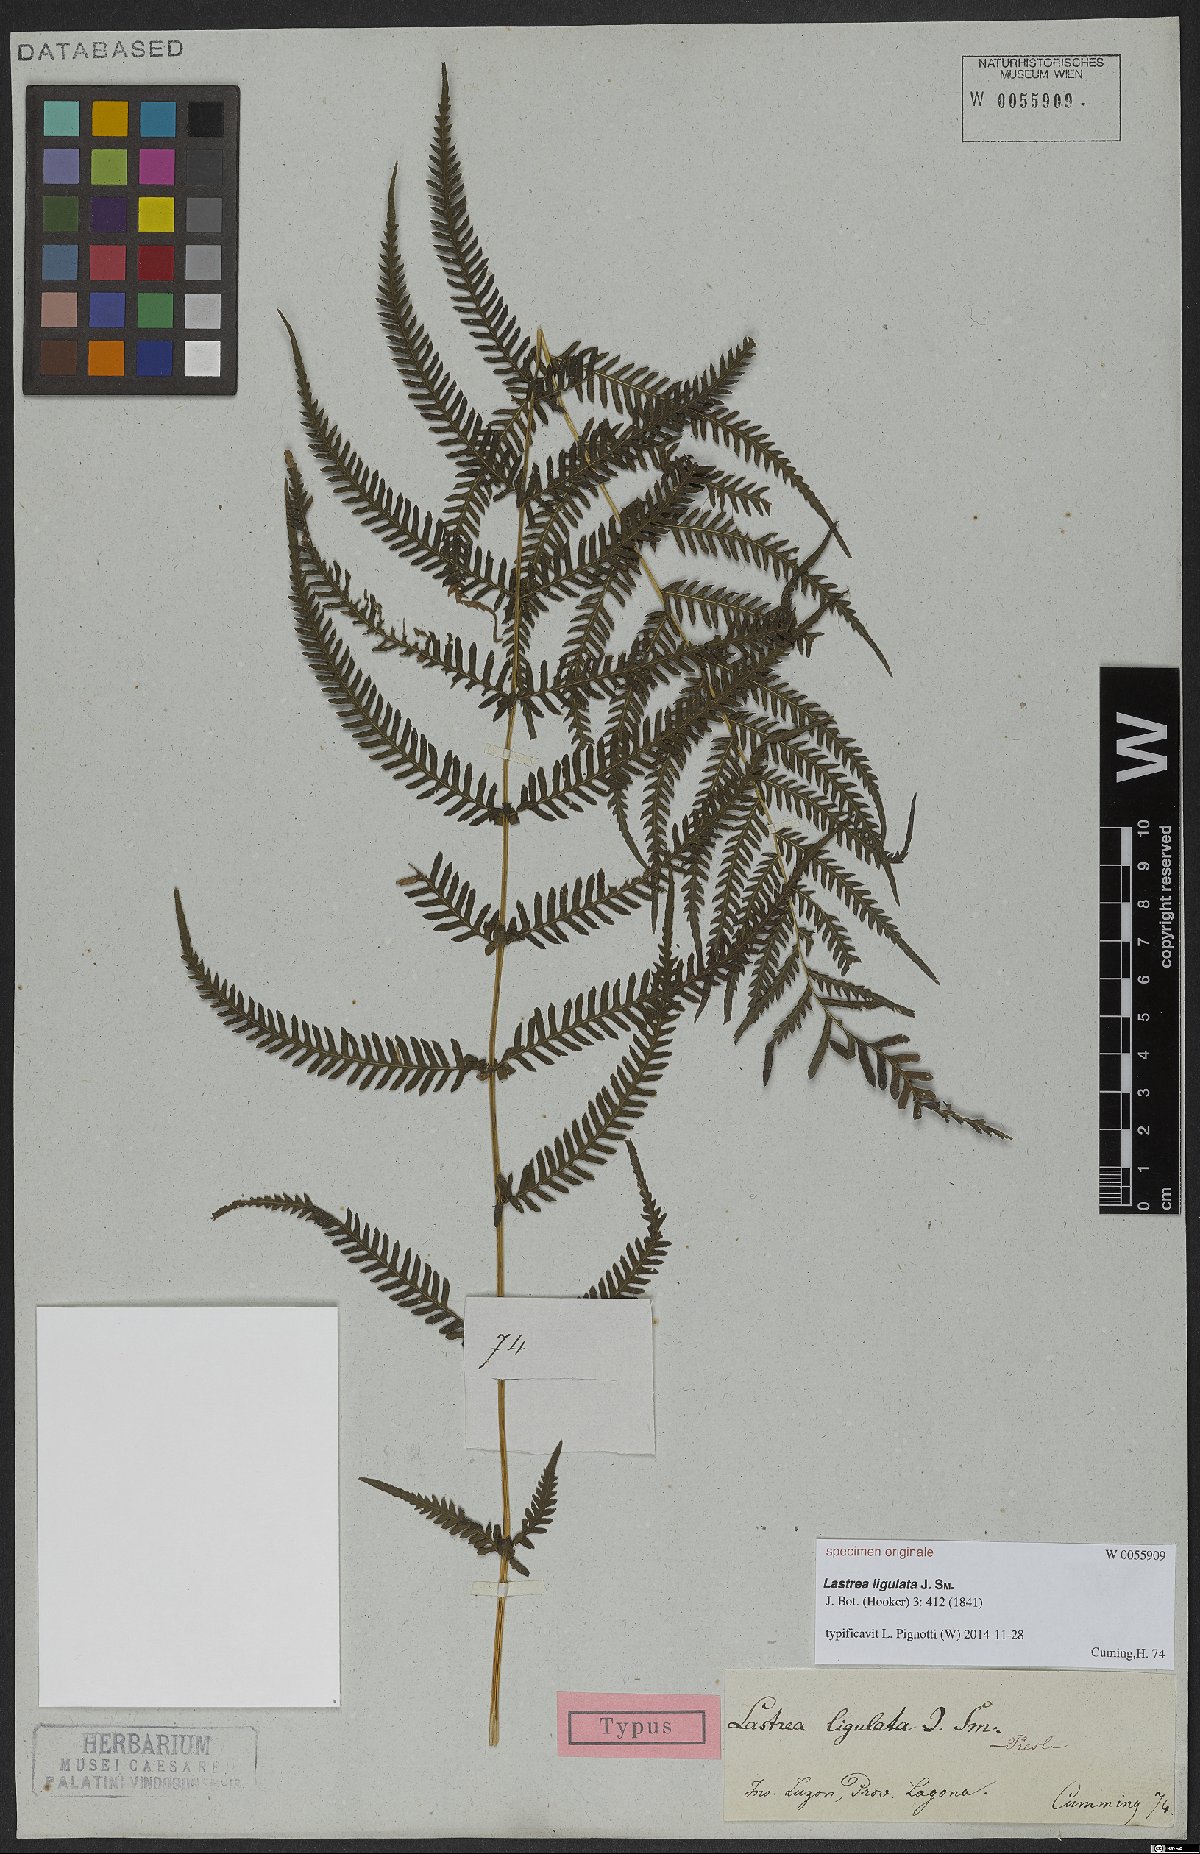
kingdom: Plantae
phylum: Tracheophyta
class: Polypodiopsida
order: Polypodiales
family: Thelypteridaceae
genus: Plesioneuron
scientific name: Plesioneuron ligulatum
